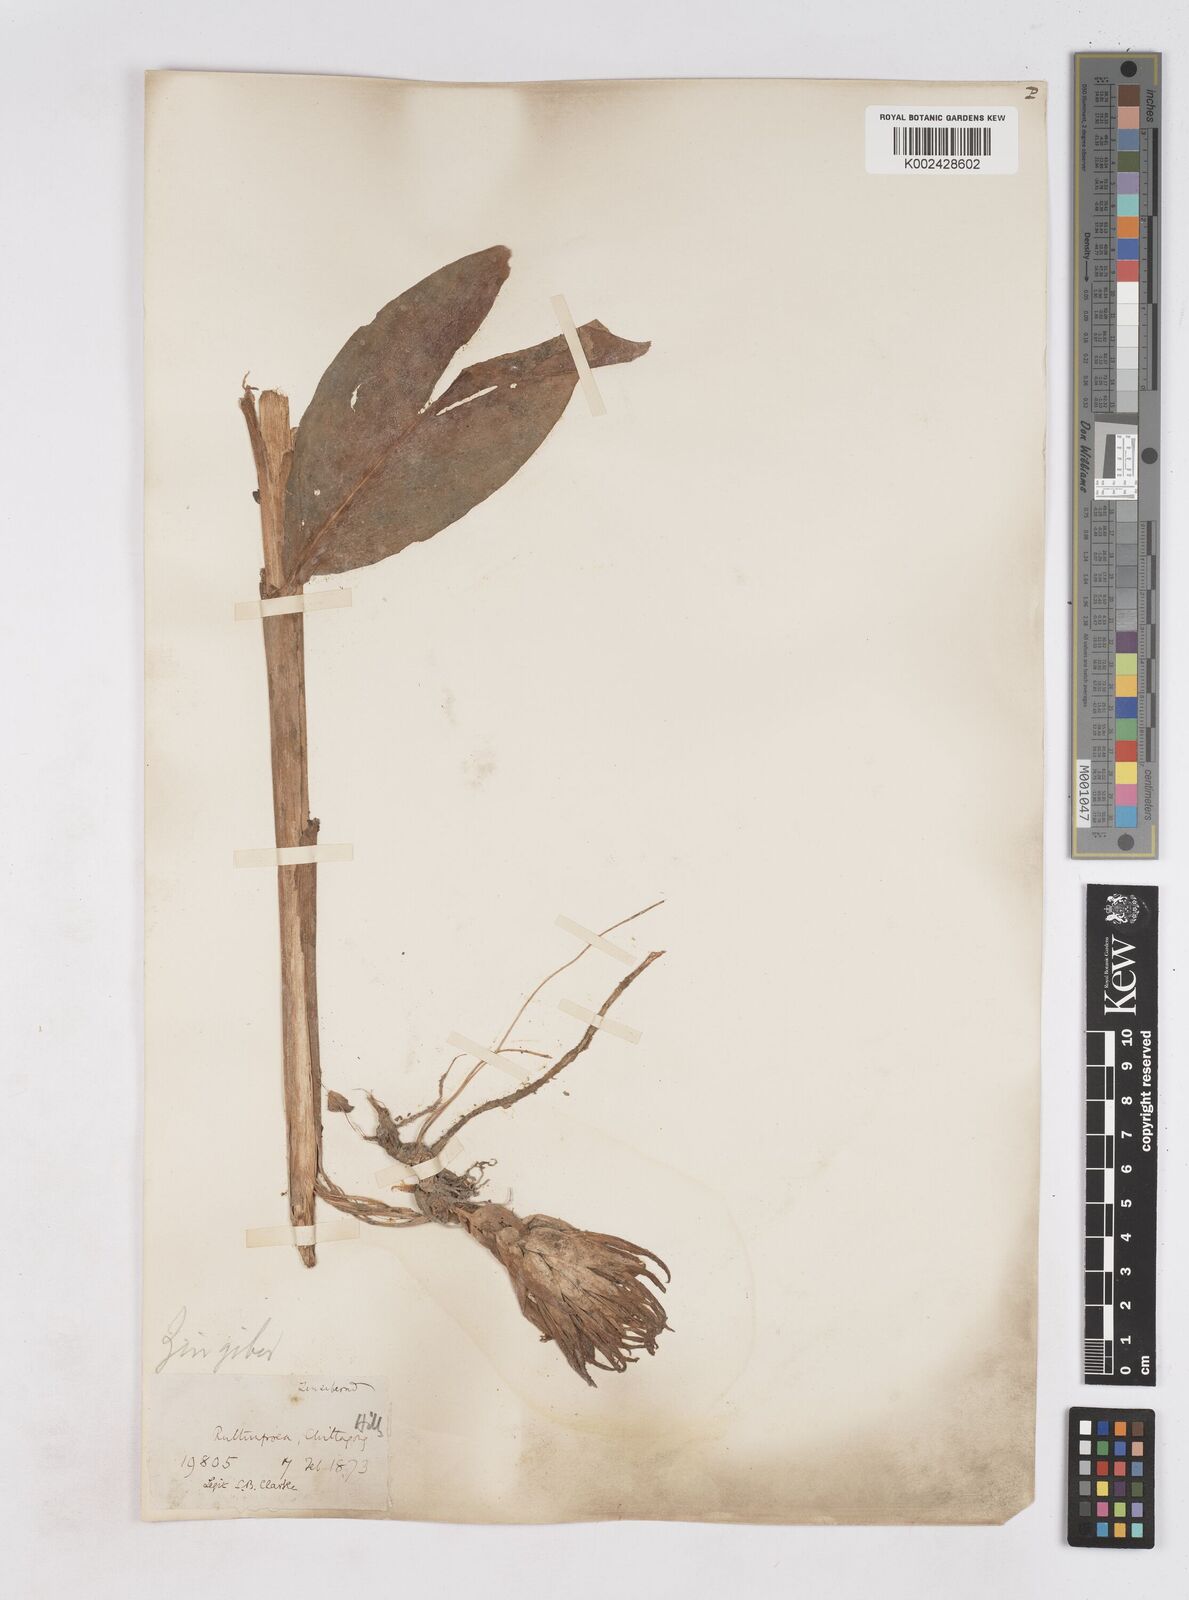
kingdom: Plantae
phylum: Tracheophyta
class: Liliopsida
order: Zingiberales
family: Zingiberaceae
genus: Zingiber
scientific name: Zingiber roseum
